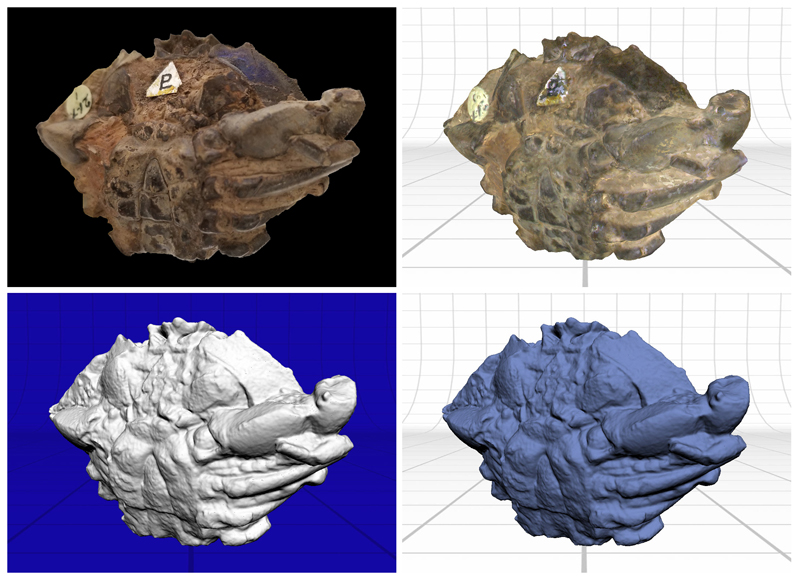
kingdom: Animalia
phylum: Arthropoda
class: Malacostraca
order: Decapoda
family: Zanthopsidae
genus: Neozanthopsis
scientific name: Neozanthopsis americanus
